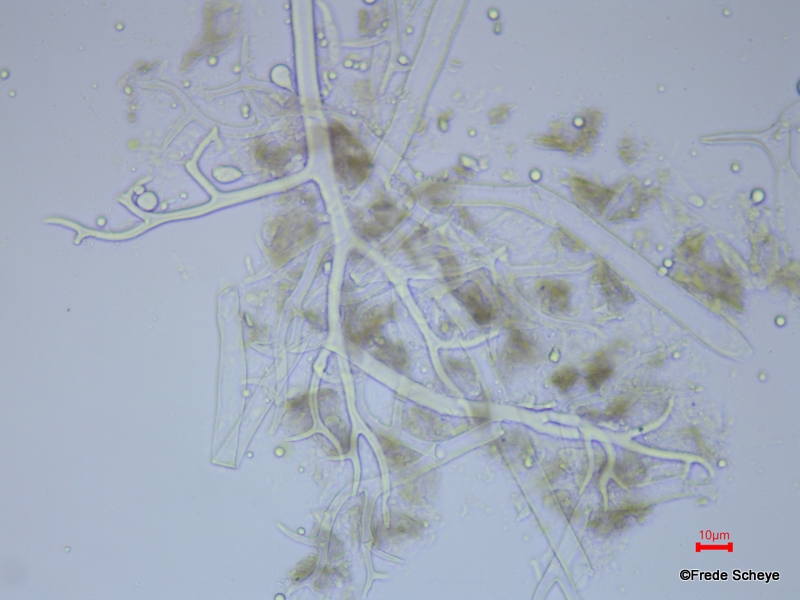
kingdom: Chromista
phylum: Oomycota
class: Peronosporea
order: Peronosporales
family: Peronosporaceae
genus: Peronospora
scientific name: Peronospora ficariae
